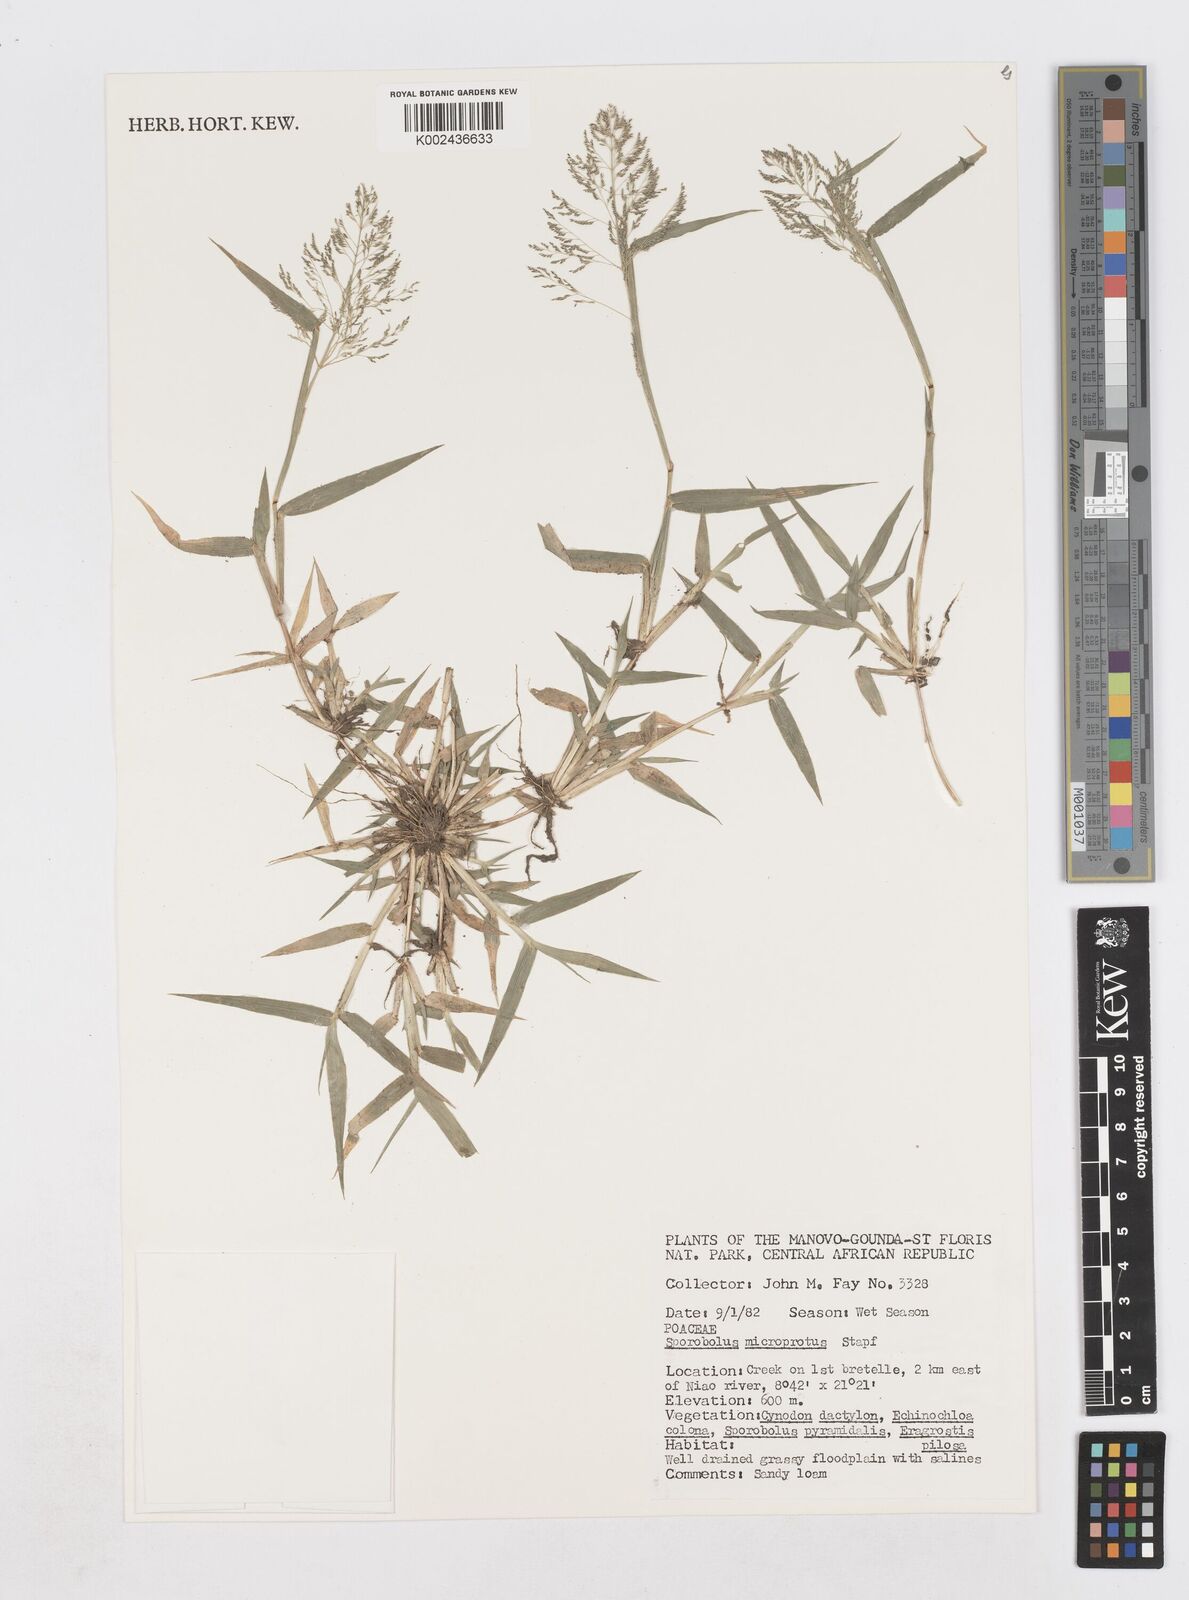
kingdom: Plantae
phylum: Tracheophyta
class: Liliopsida
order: Poales
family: Poaceae
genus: Sporobolus
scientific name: Sporobolus microprotus
